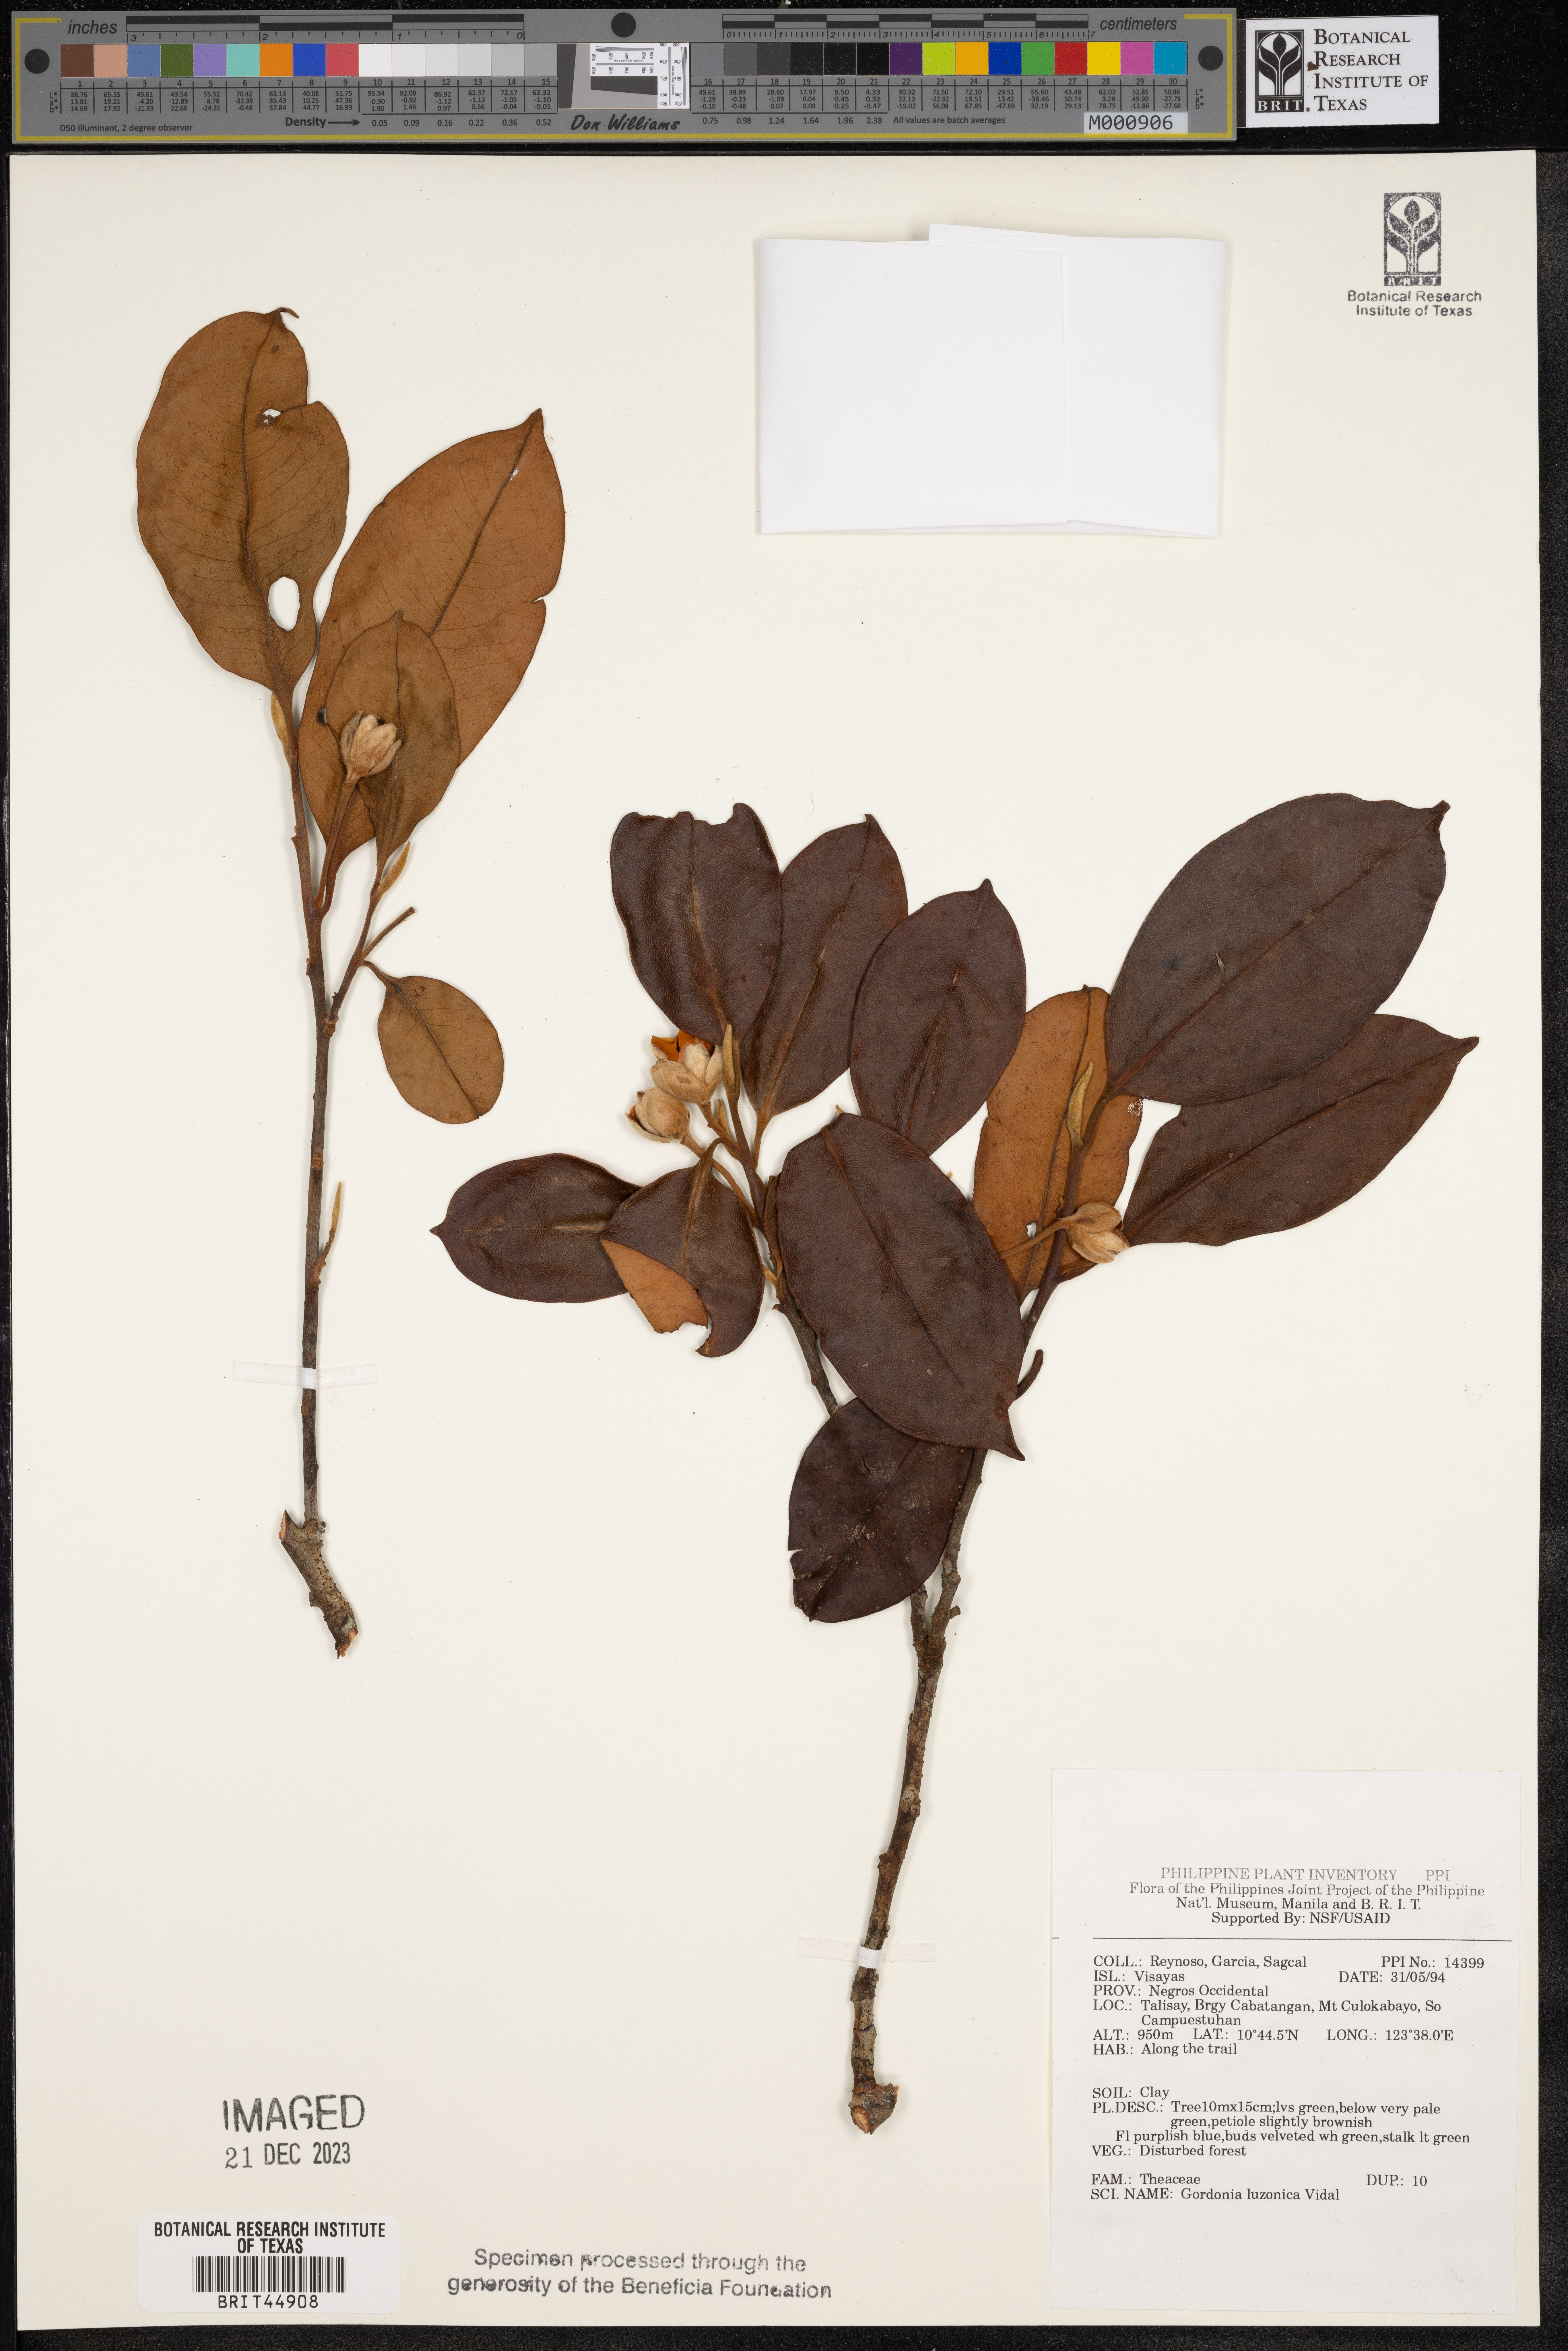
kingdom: Plantae
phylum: Tracheophyta
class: Magnoliopsida
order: Ericales
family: Theaceae
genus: Polyspora
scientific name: Polyspora luzonica
